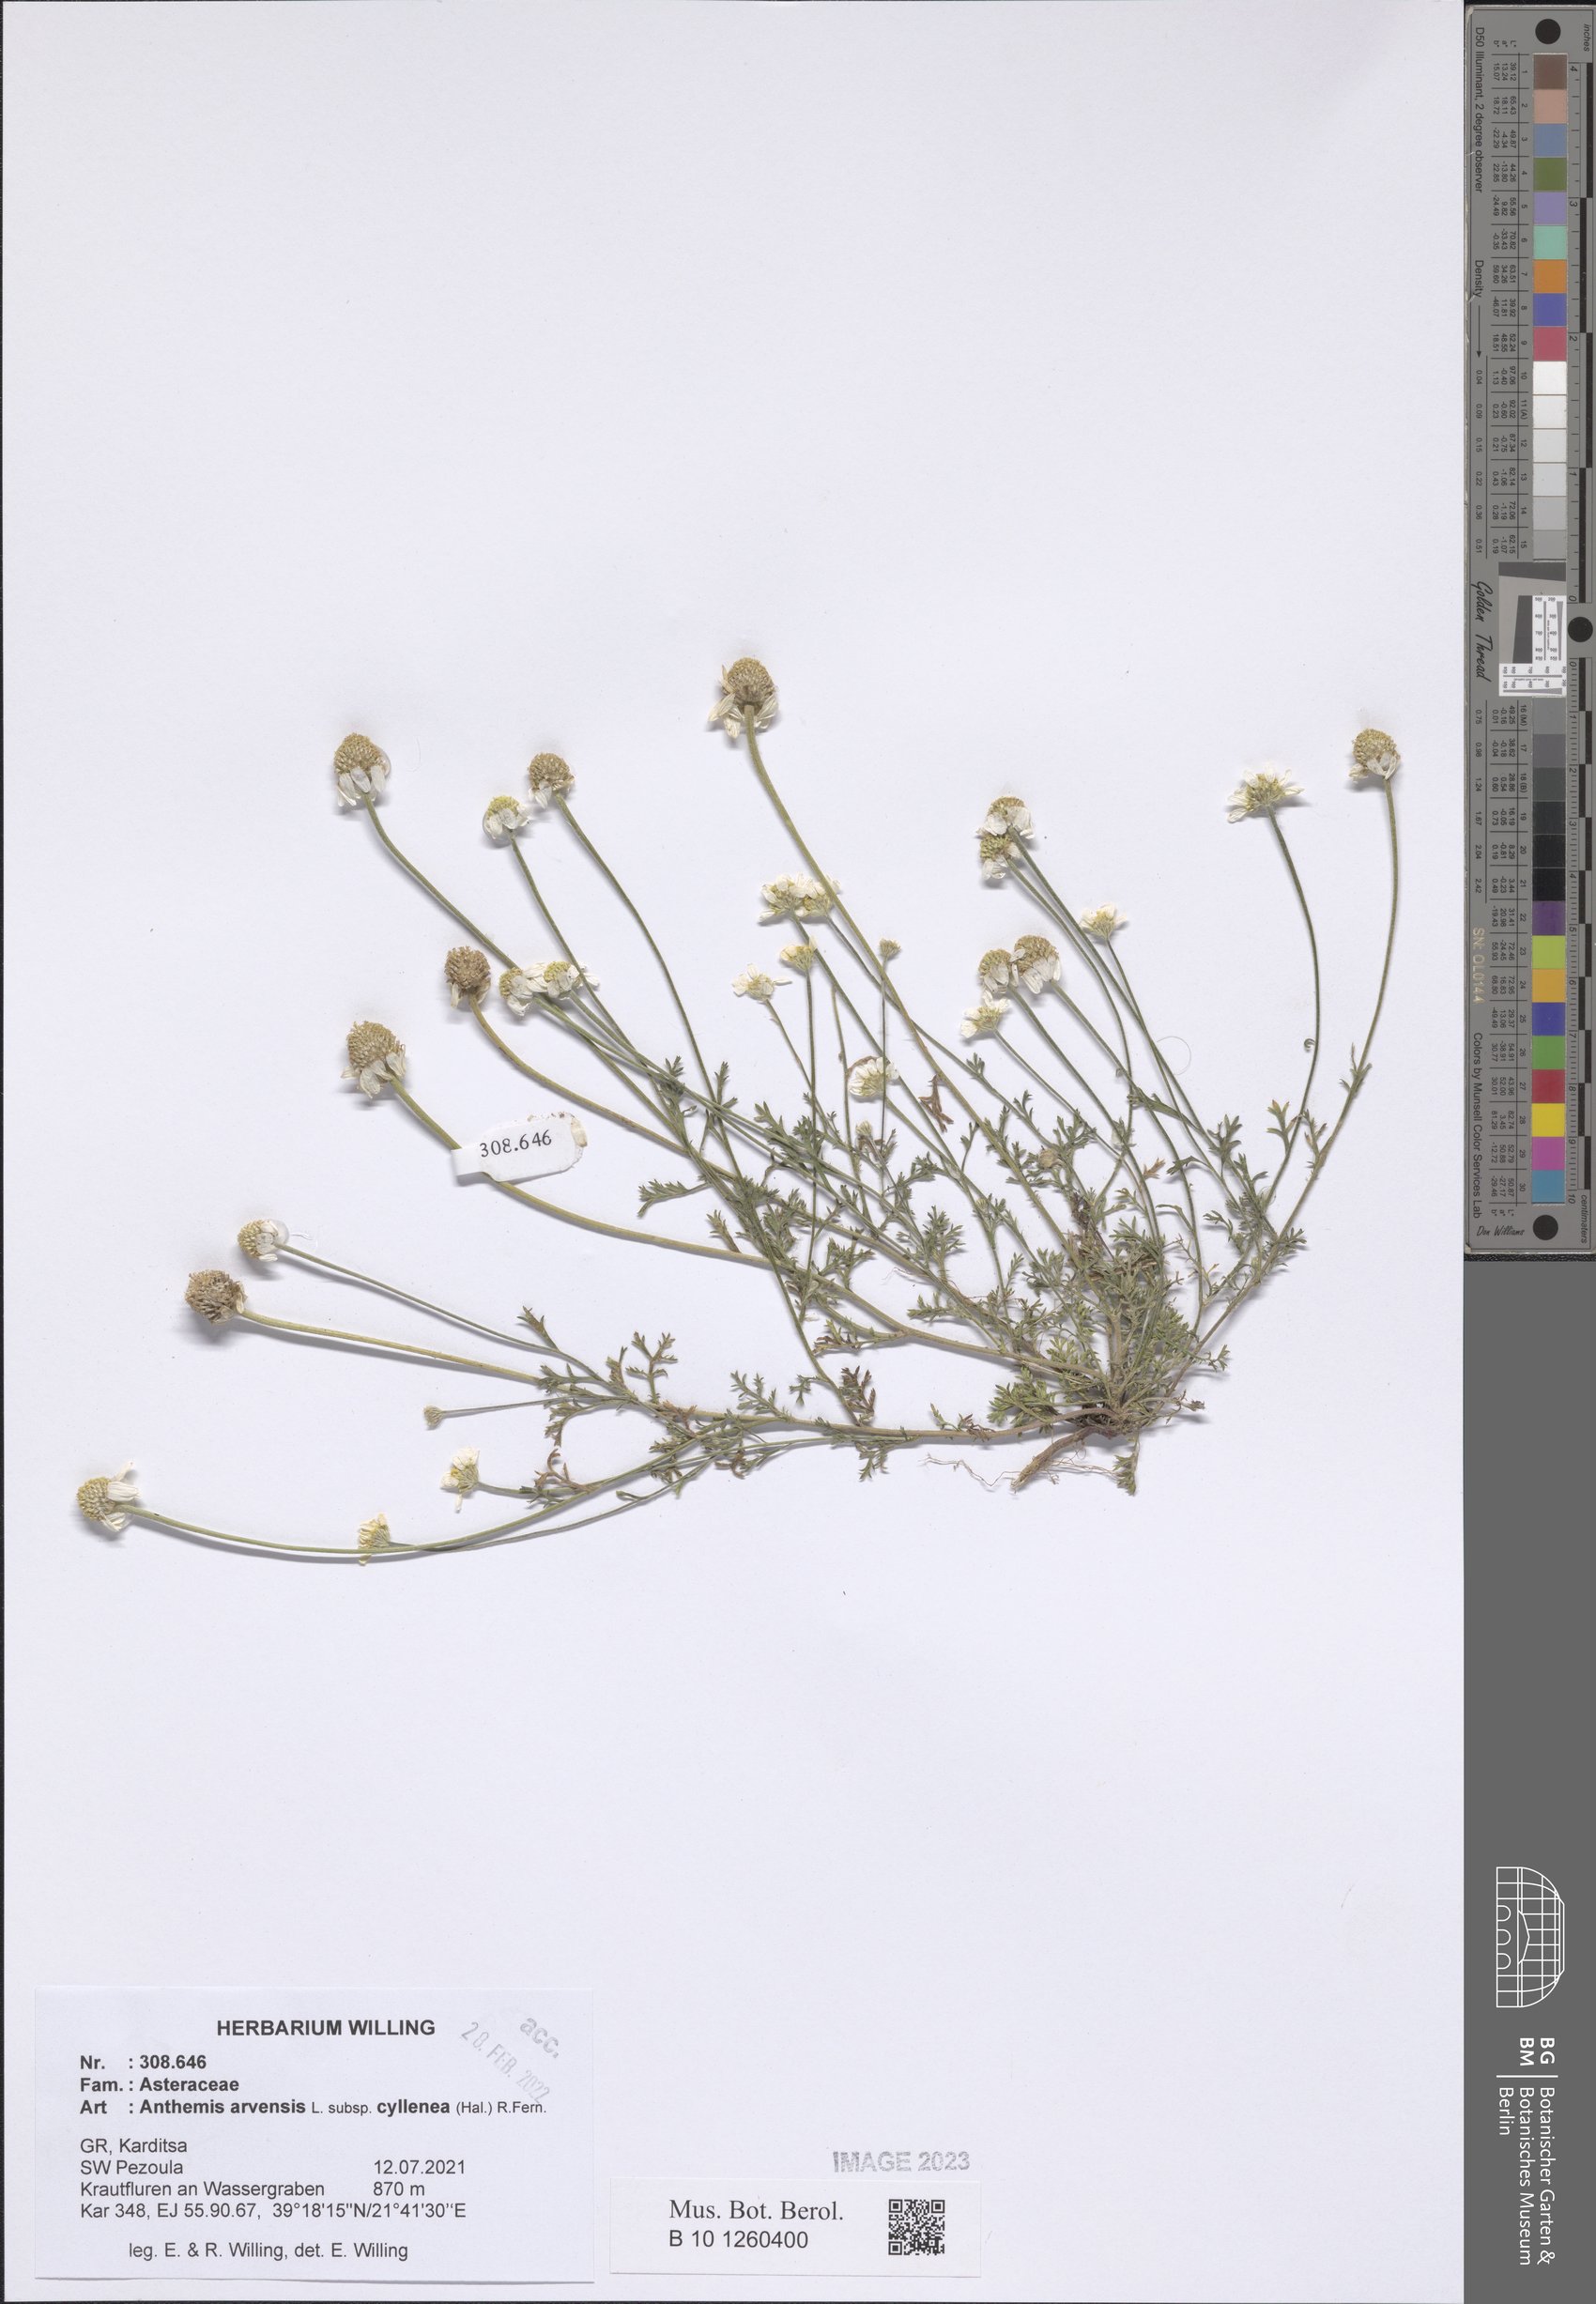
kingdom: Plantae
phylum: Tracheophyta
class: Magnoliopsida
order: Asterales
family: Asteraceae
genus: Anthemis
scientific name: Anthemis arvensis
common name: Corn chamomile
